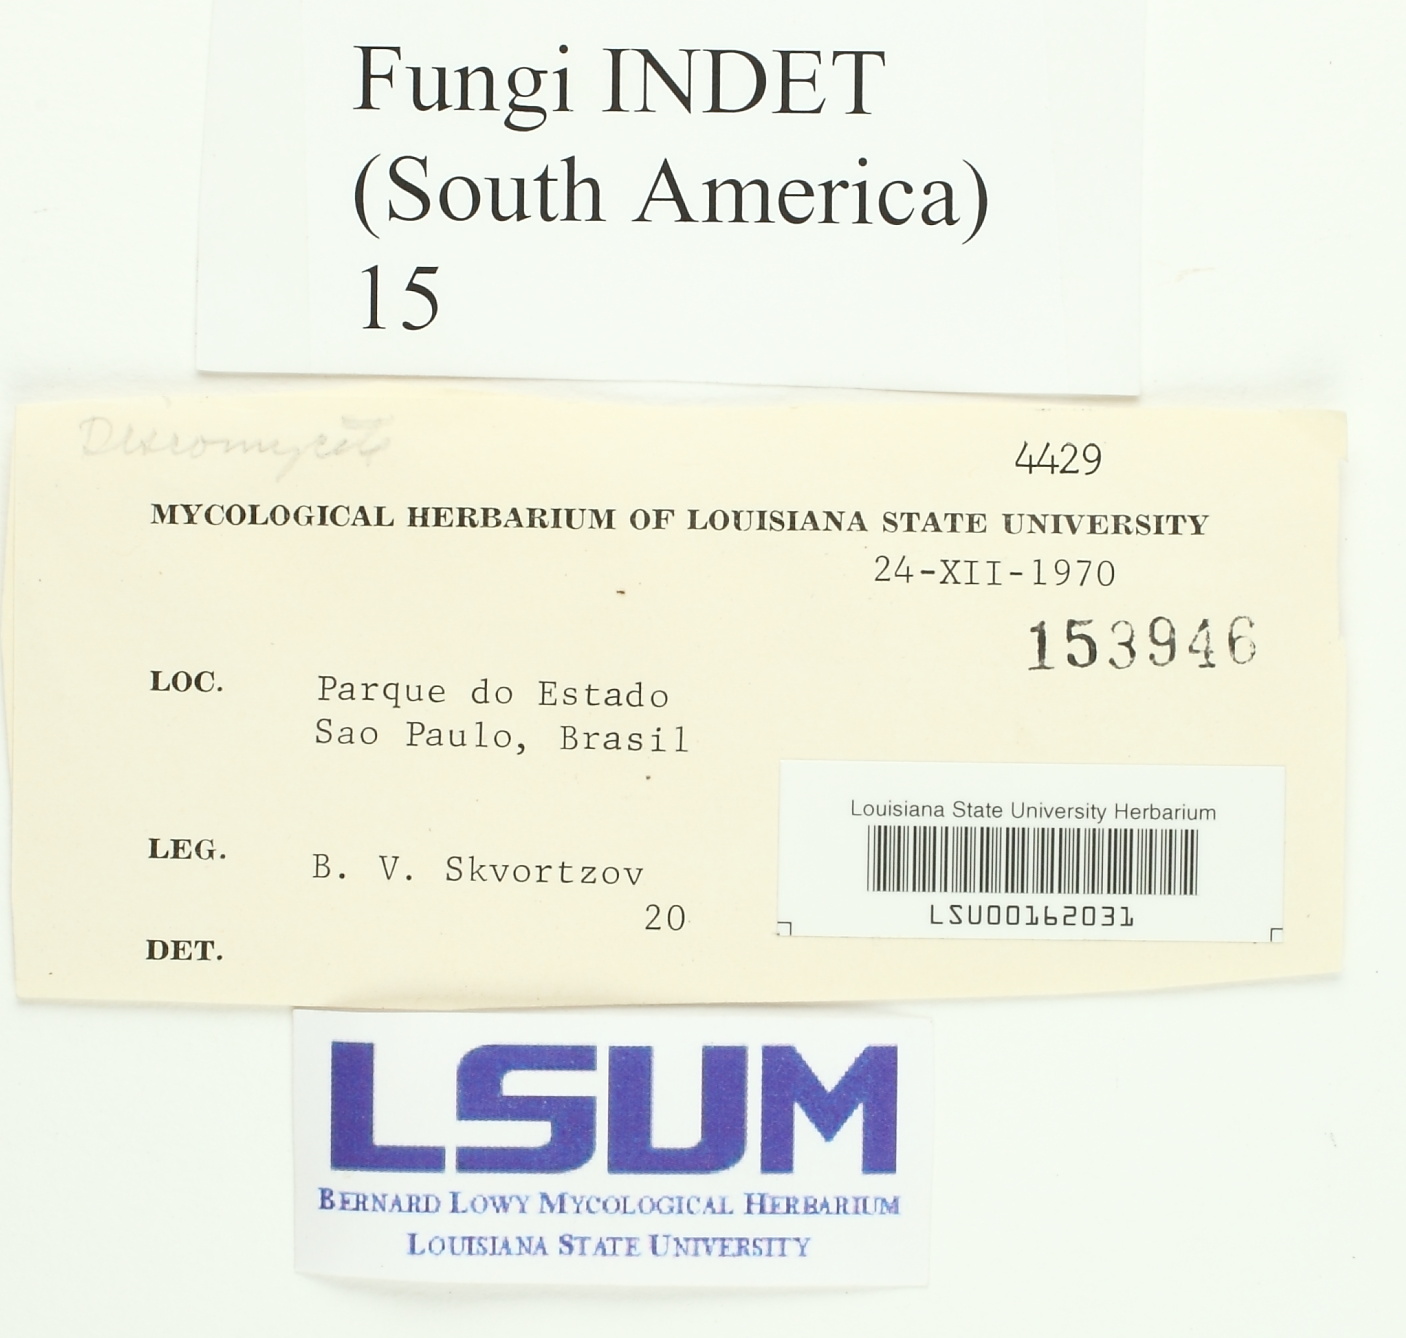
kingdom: Fungi
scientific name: Fungi
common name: Fungi
